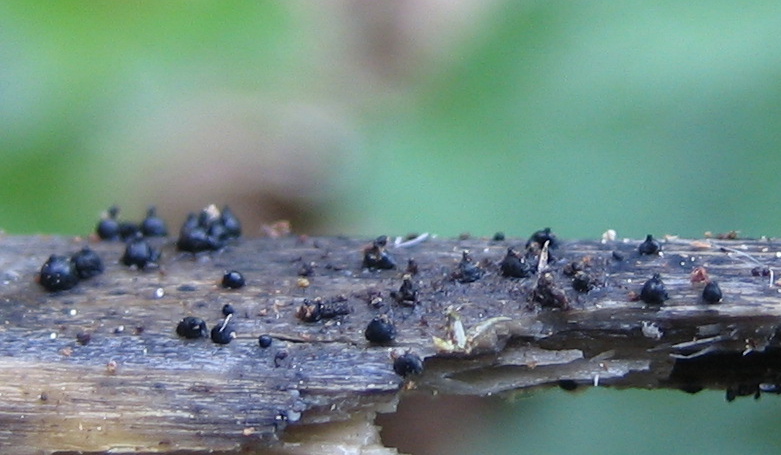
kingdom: Fungi
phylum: Ascomycota
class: Dothideomycetes
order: Pleosporales
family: Leptosphaeriaceae
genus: Leptosphaeria
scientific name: Leptosphaeria
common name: kulkegle
